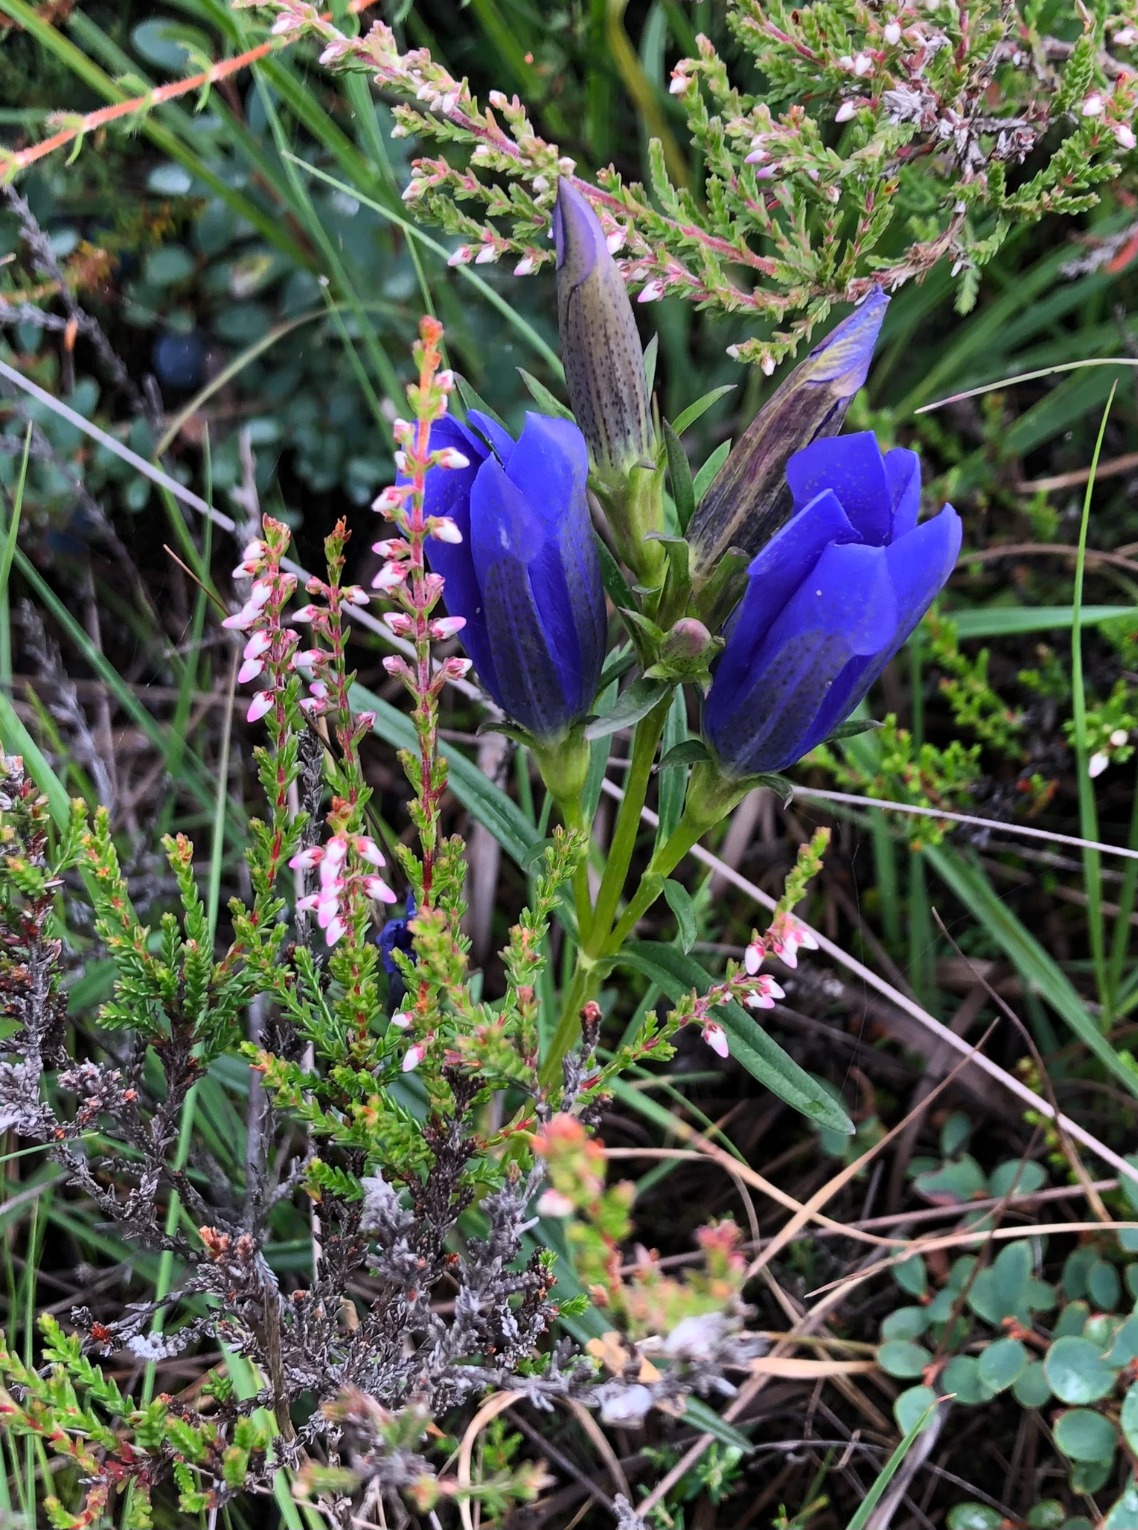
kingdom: Plantae
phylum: Tracheophyta
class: Magnoliopsida
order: Gentianales
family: Gentianaceae
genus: Gentiana
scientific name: Gentiana pneumonanthe
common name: Klokke-ensian
